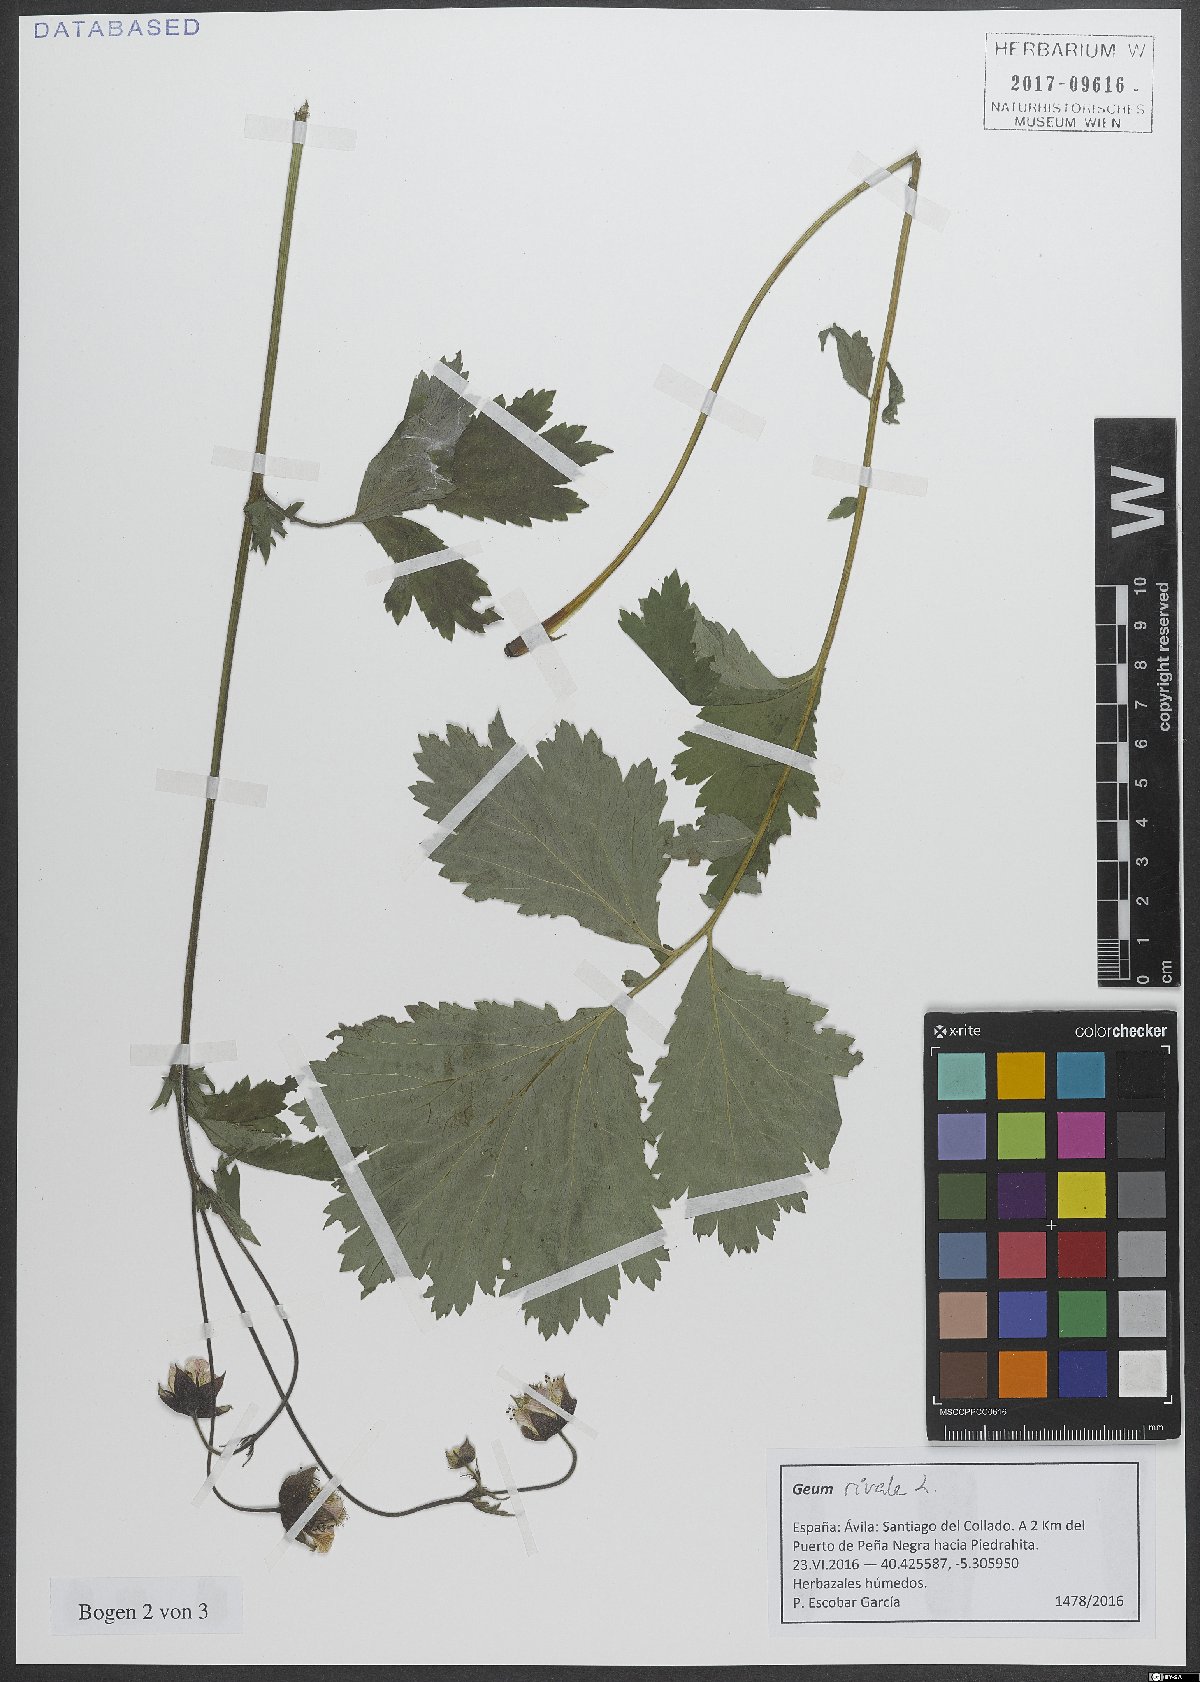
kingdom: Plantae
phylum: Tracheophyta
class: Magnoliopsida
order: Rosales
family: Rosaceae
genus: Geum
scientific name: Geum rivale
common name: Water avens
